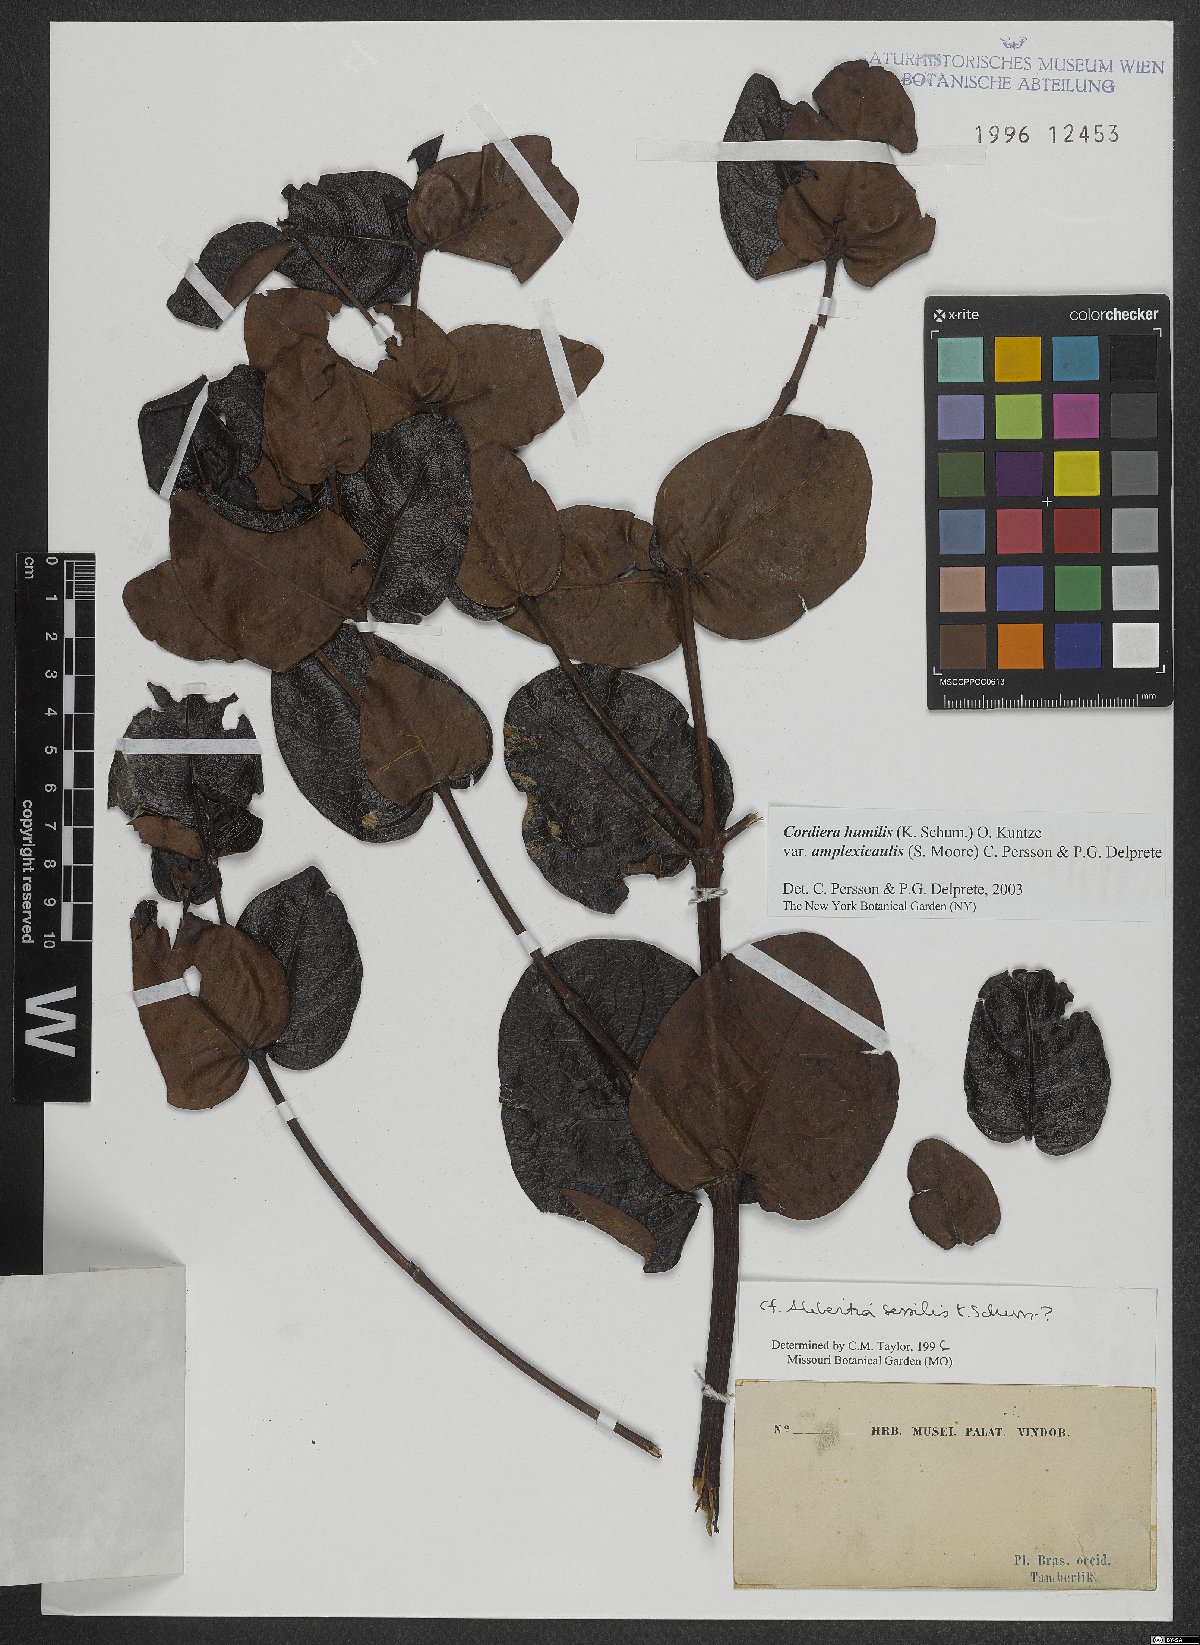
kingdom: Plantae
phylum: Tracheophyta
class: Magnoliopsida
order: Gentianales
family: Rubiaceae
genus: Cordiera
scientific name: Cordiera sessilis
